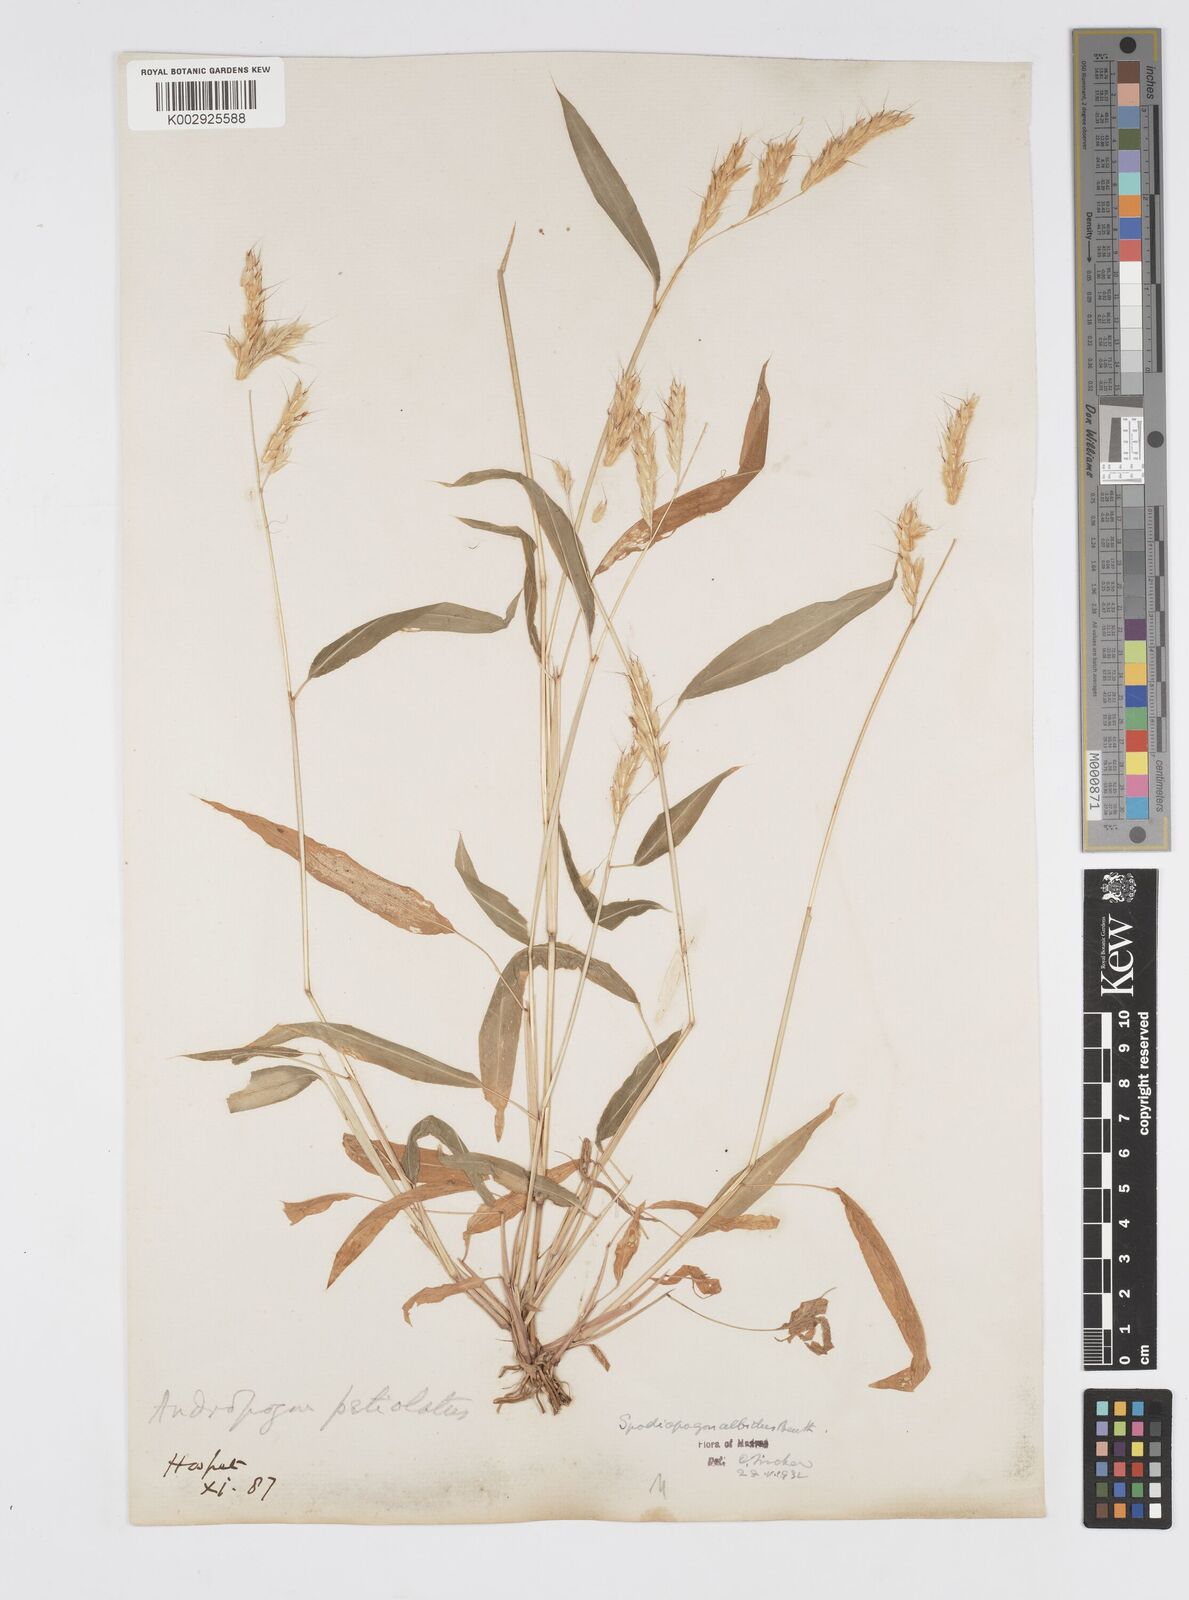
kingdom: Plantae
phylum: Tracheophyta
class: Liliopsida
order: Poales
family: Poaceae
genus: Spodiopogon
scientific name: Spodiopogon rhizophorus
